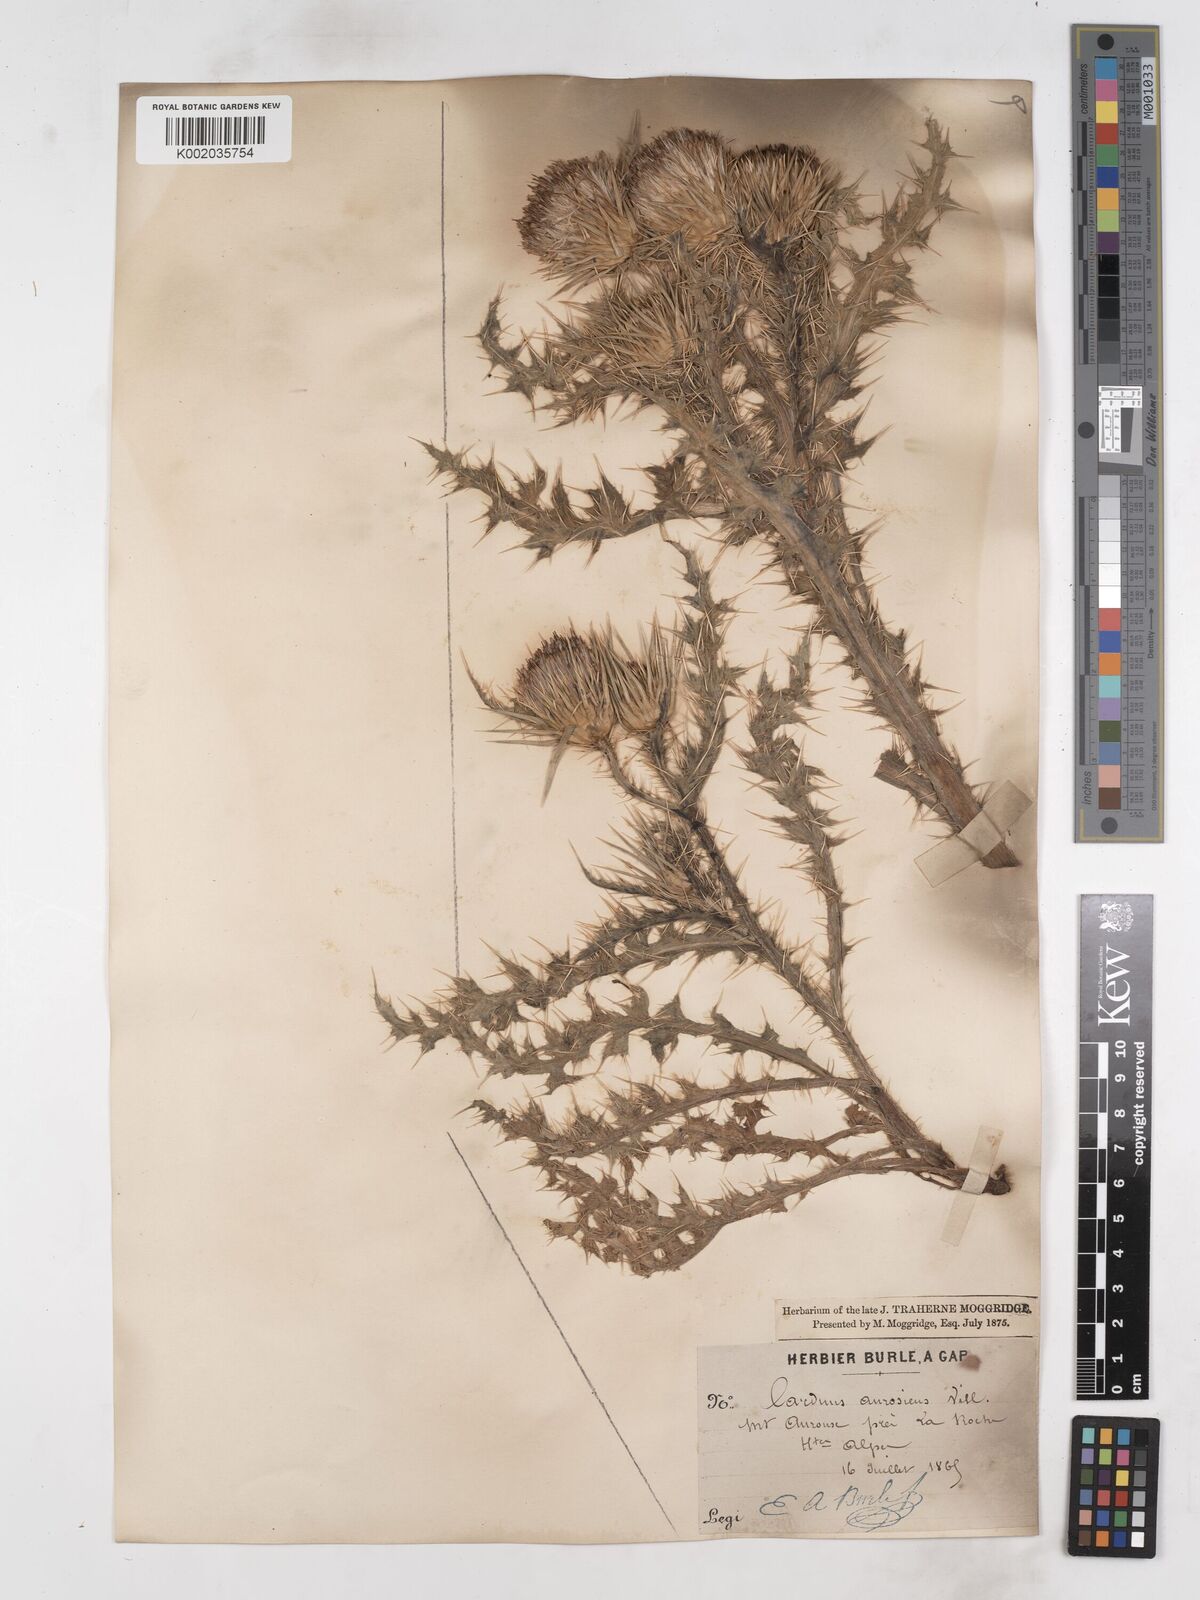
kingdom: Plantae
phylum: Tracheophyta
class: Magnoliopsida
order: Asterales
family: Asteraceae
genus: Carduus
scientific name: Carduus aurosicus
